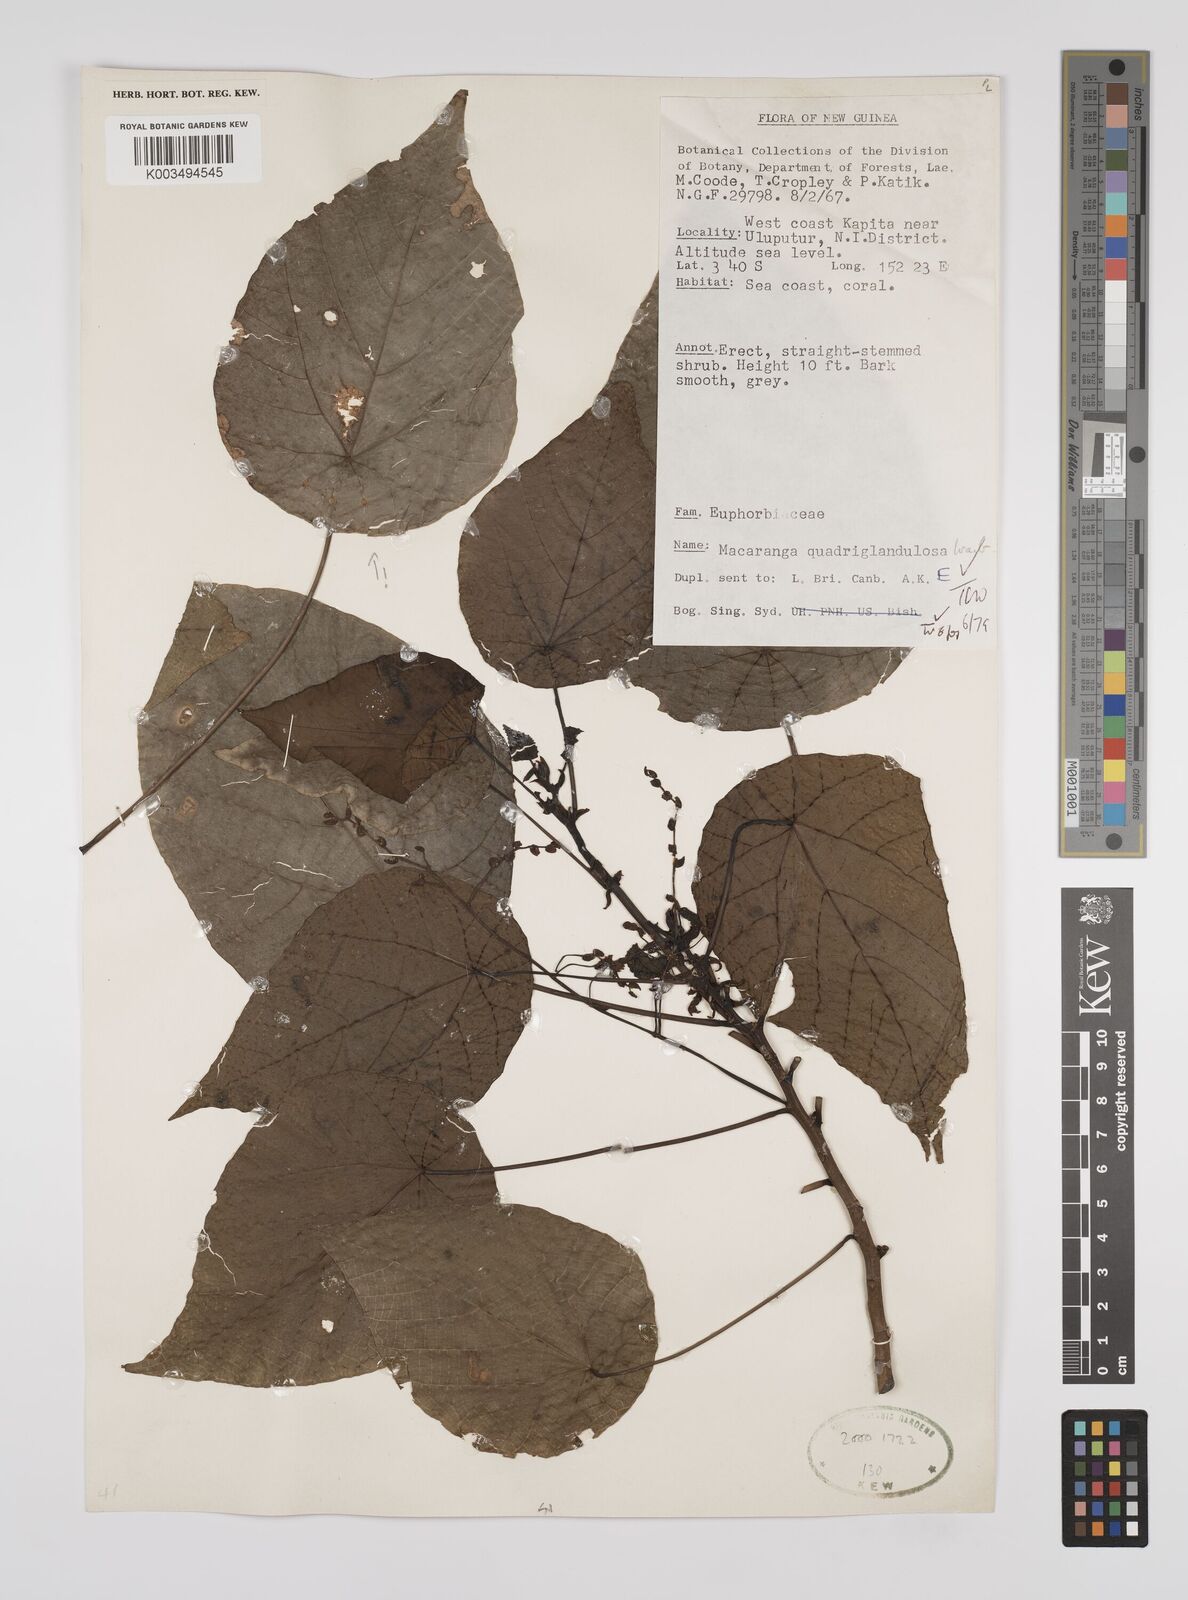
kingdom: Plantae
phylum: Tracheophyta
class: Magnoliopsida
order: Malpighiales
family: Euphorbiaceae
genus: Macaranga
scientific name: Macaranga quadriglandulosa
